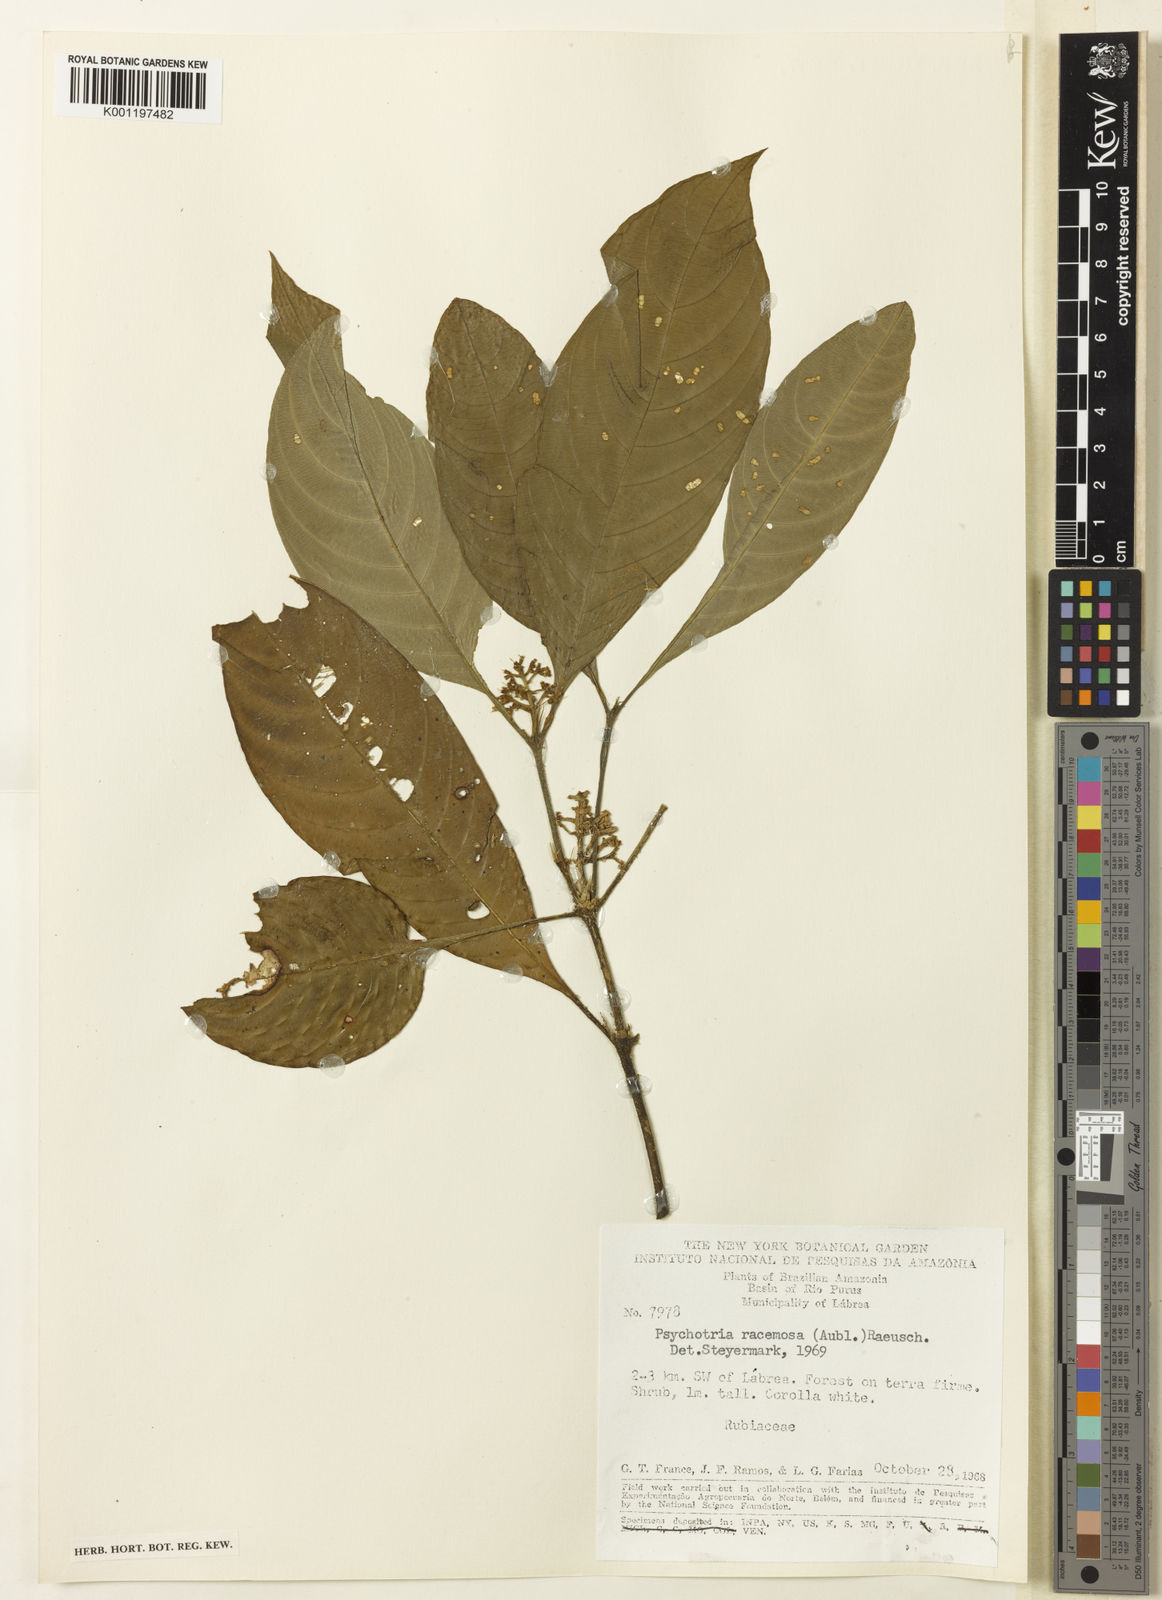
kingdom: Plantae
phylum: Tracheophyta
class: Magnoliopsida
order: Gentianales
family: Rubiaceae
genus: Palicourea
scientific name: Palicourea racemosa
